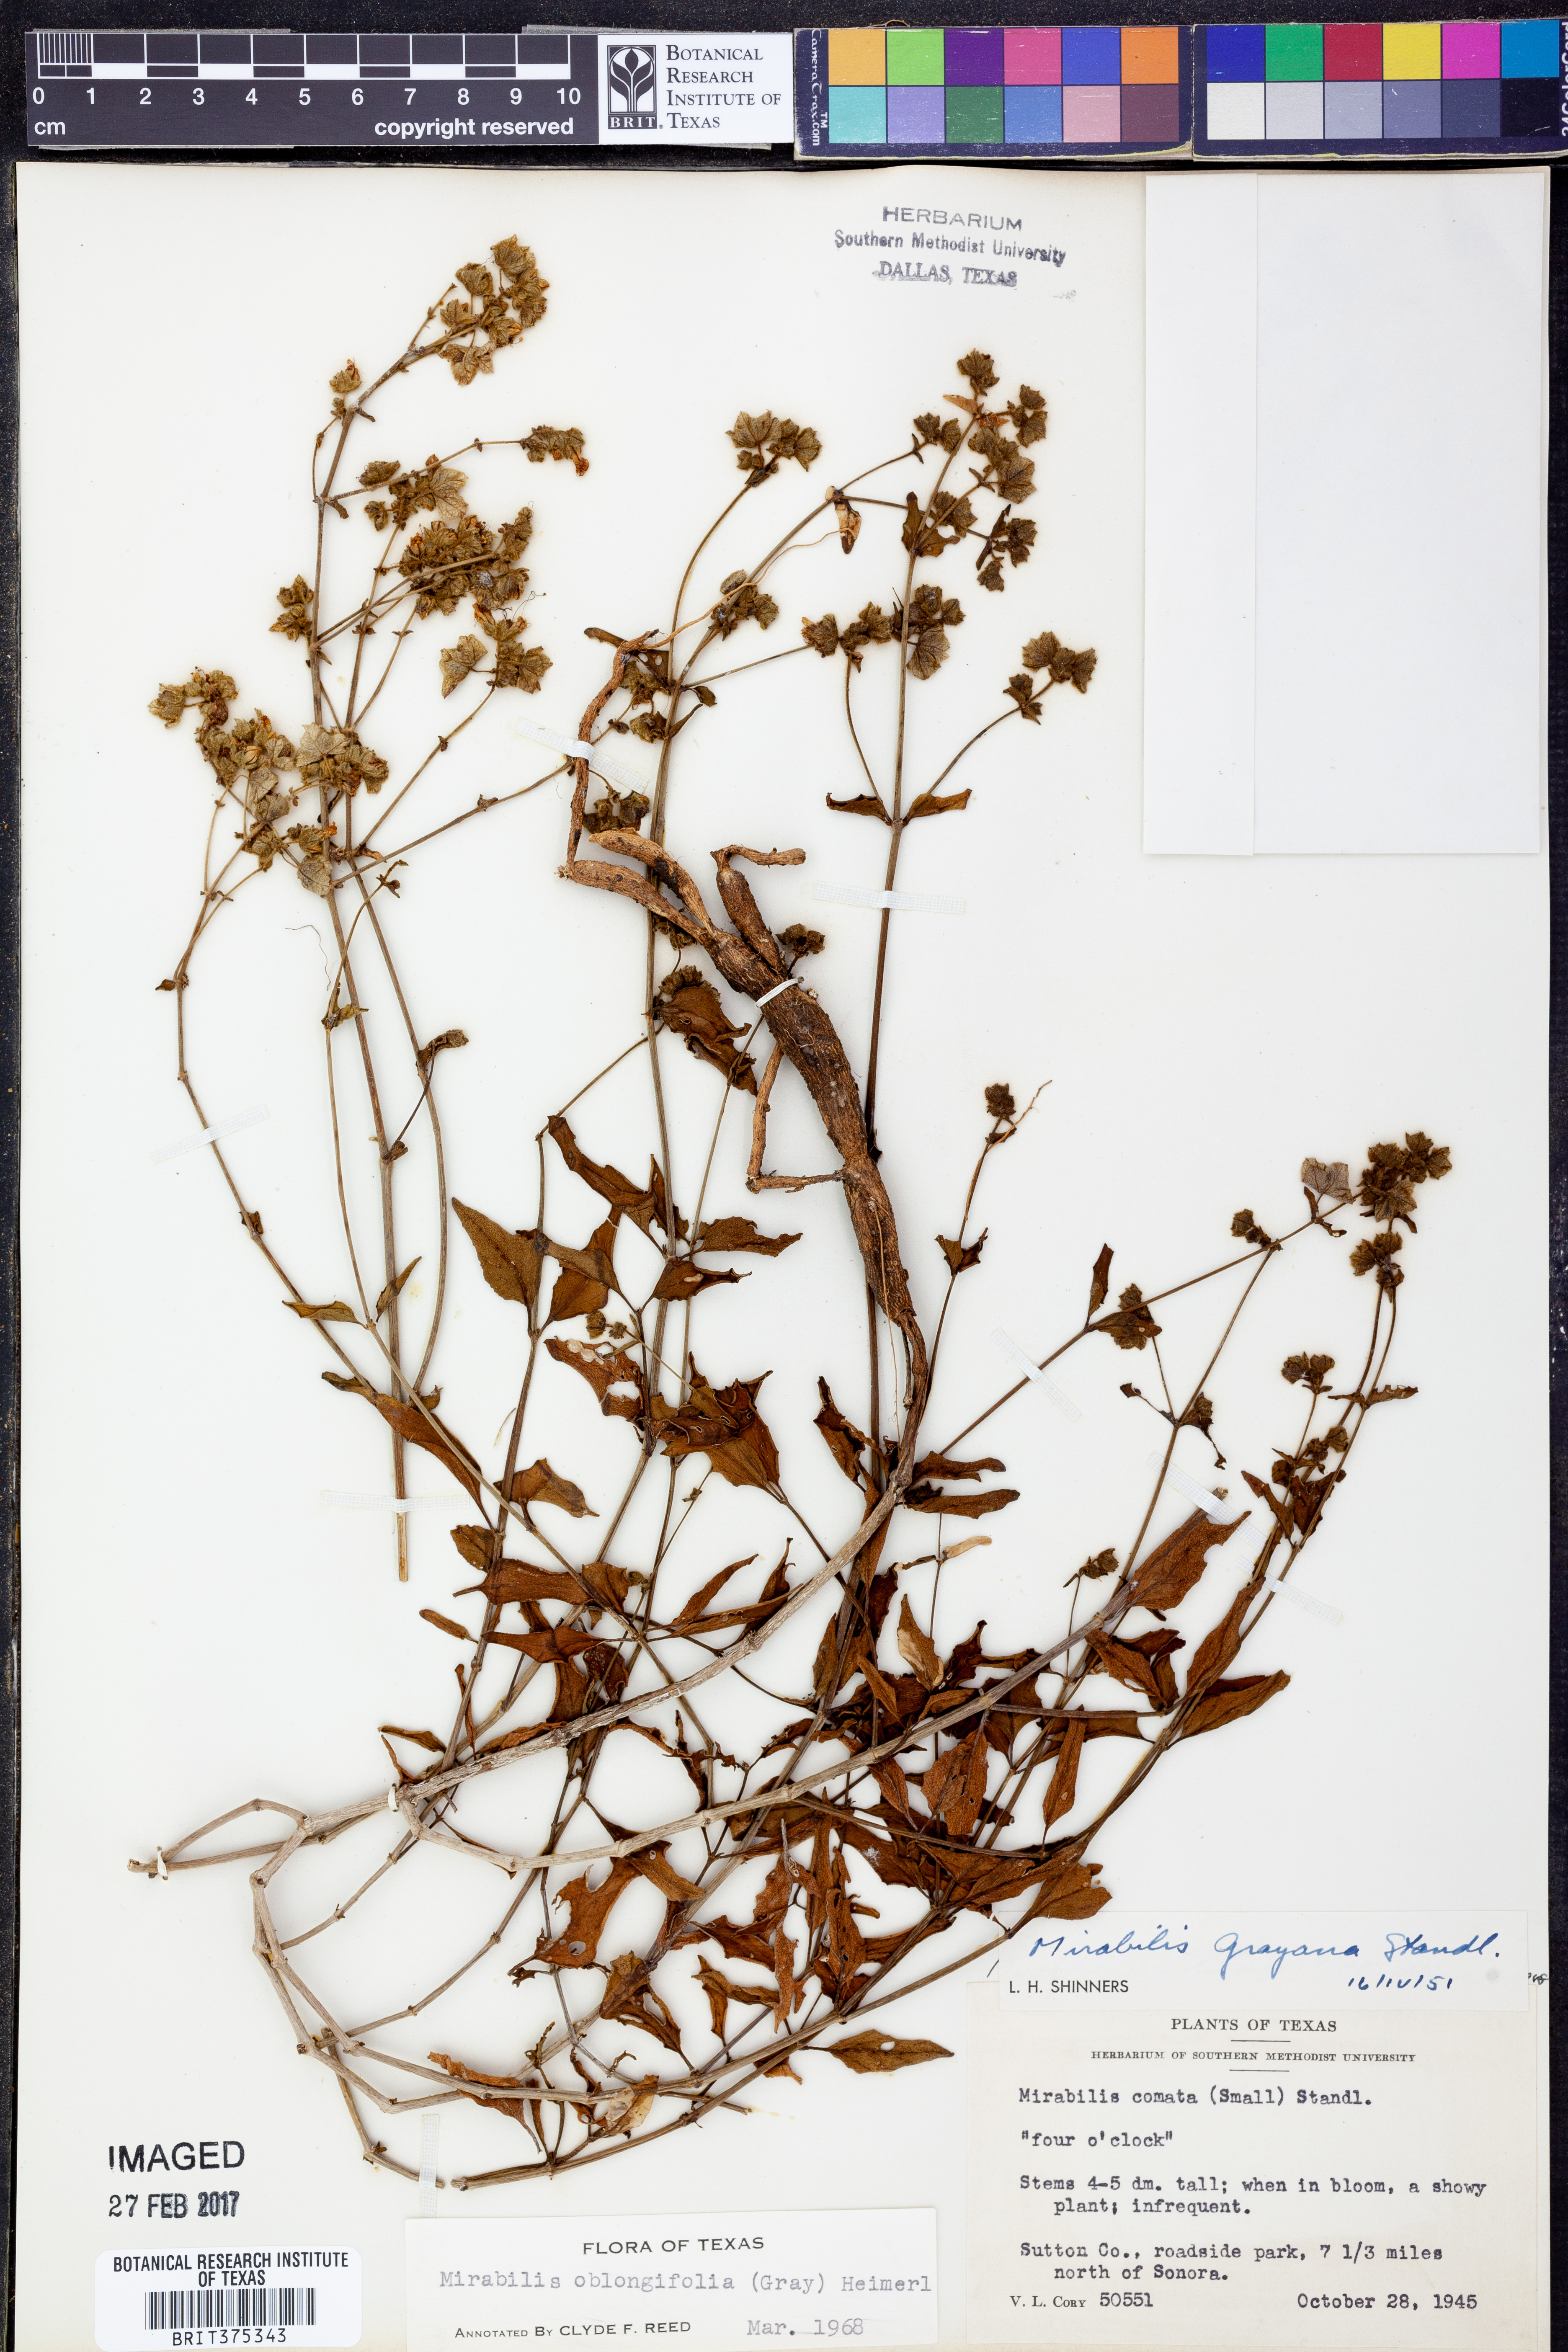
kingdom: Plantae
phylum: Tracheophyta
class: Magnoliopsida
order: Caryophyllales
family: Nyctaginaceae
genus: Mirabilis
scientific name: Mirabilis albida
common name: Hairy four-o'clock
